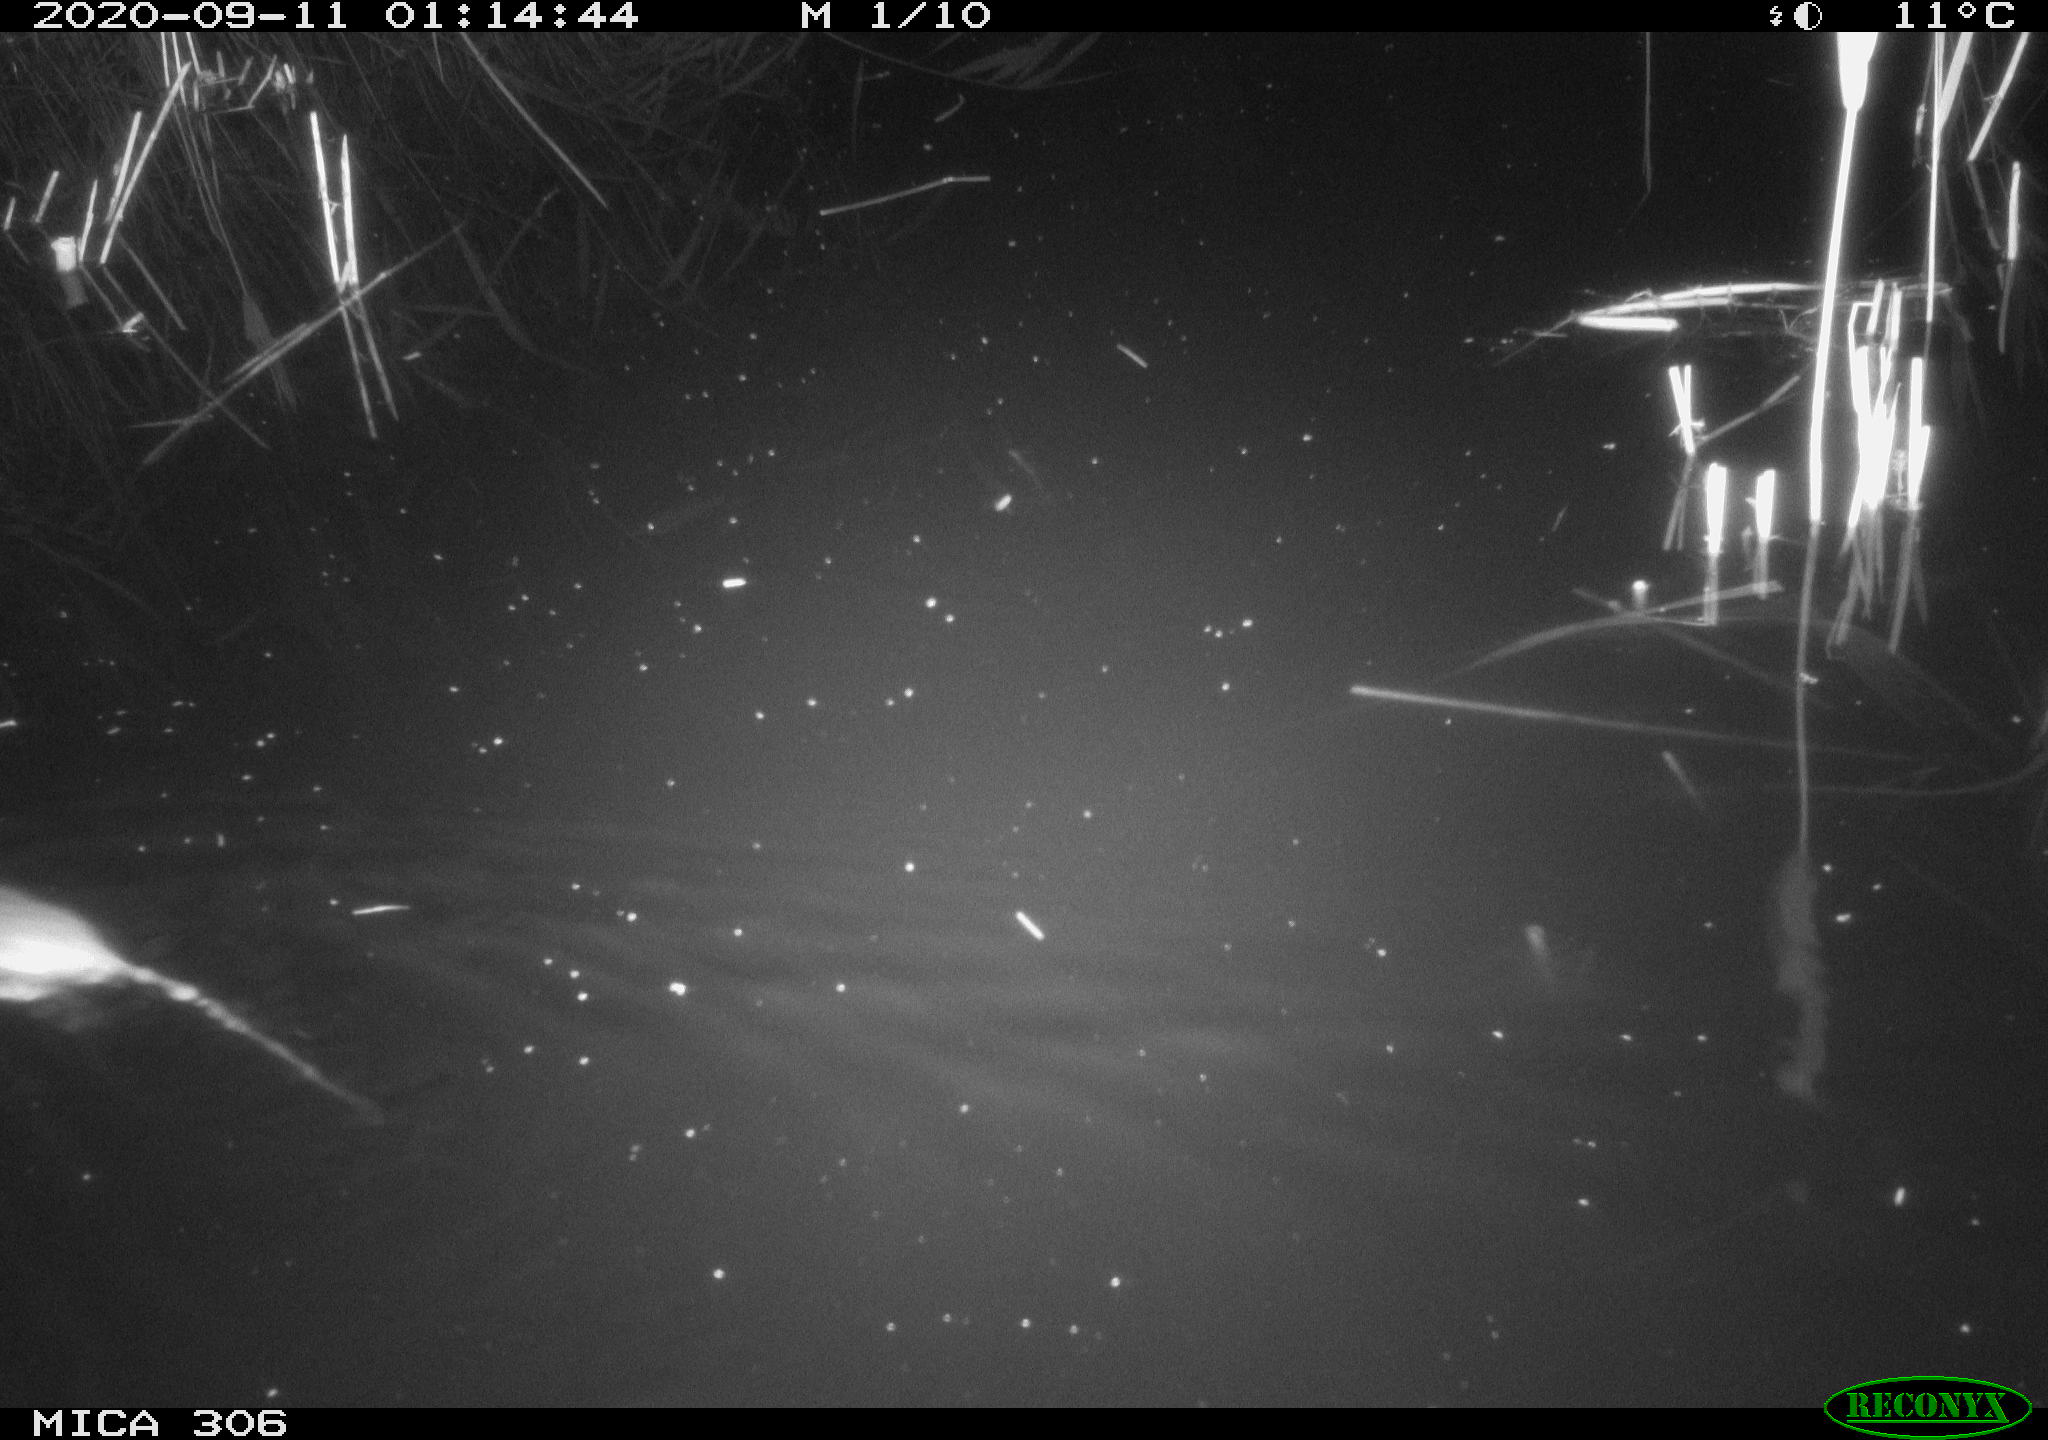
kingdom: Animalia
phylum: Chordata
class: Mammalia
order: Rodentia
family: Muridae
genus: Rattus
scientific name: Rattus norvegicus
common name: Brown rat
